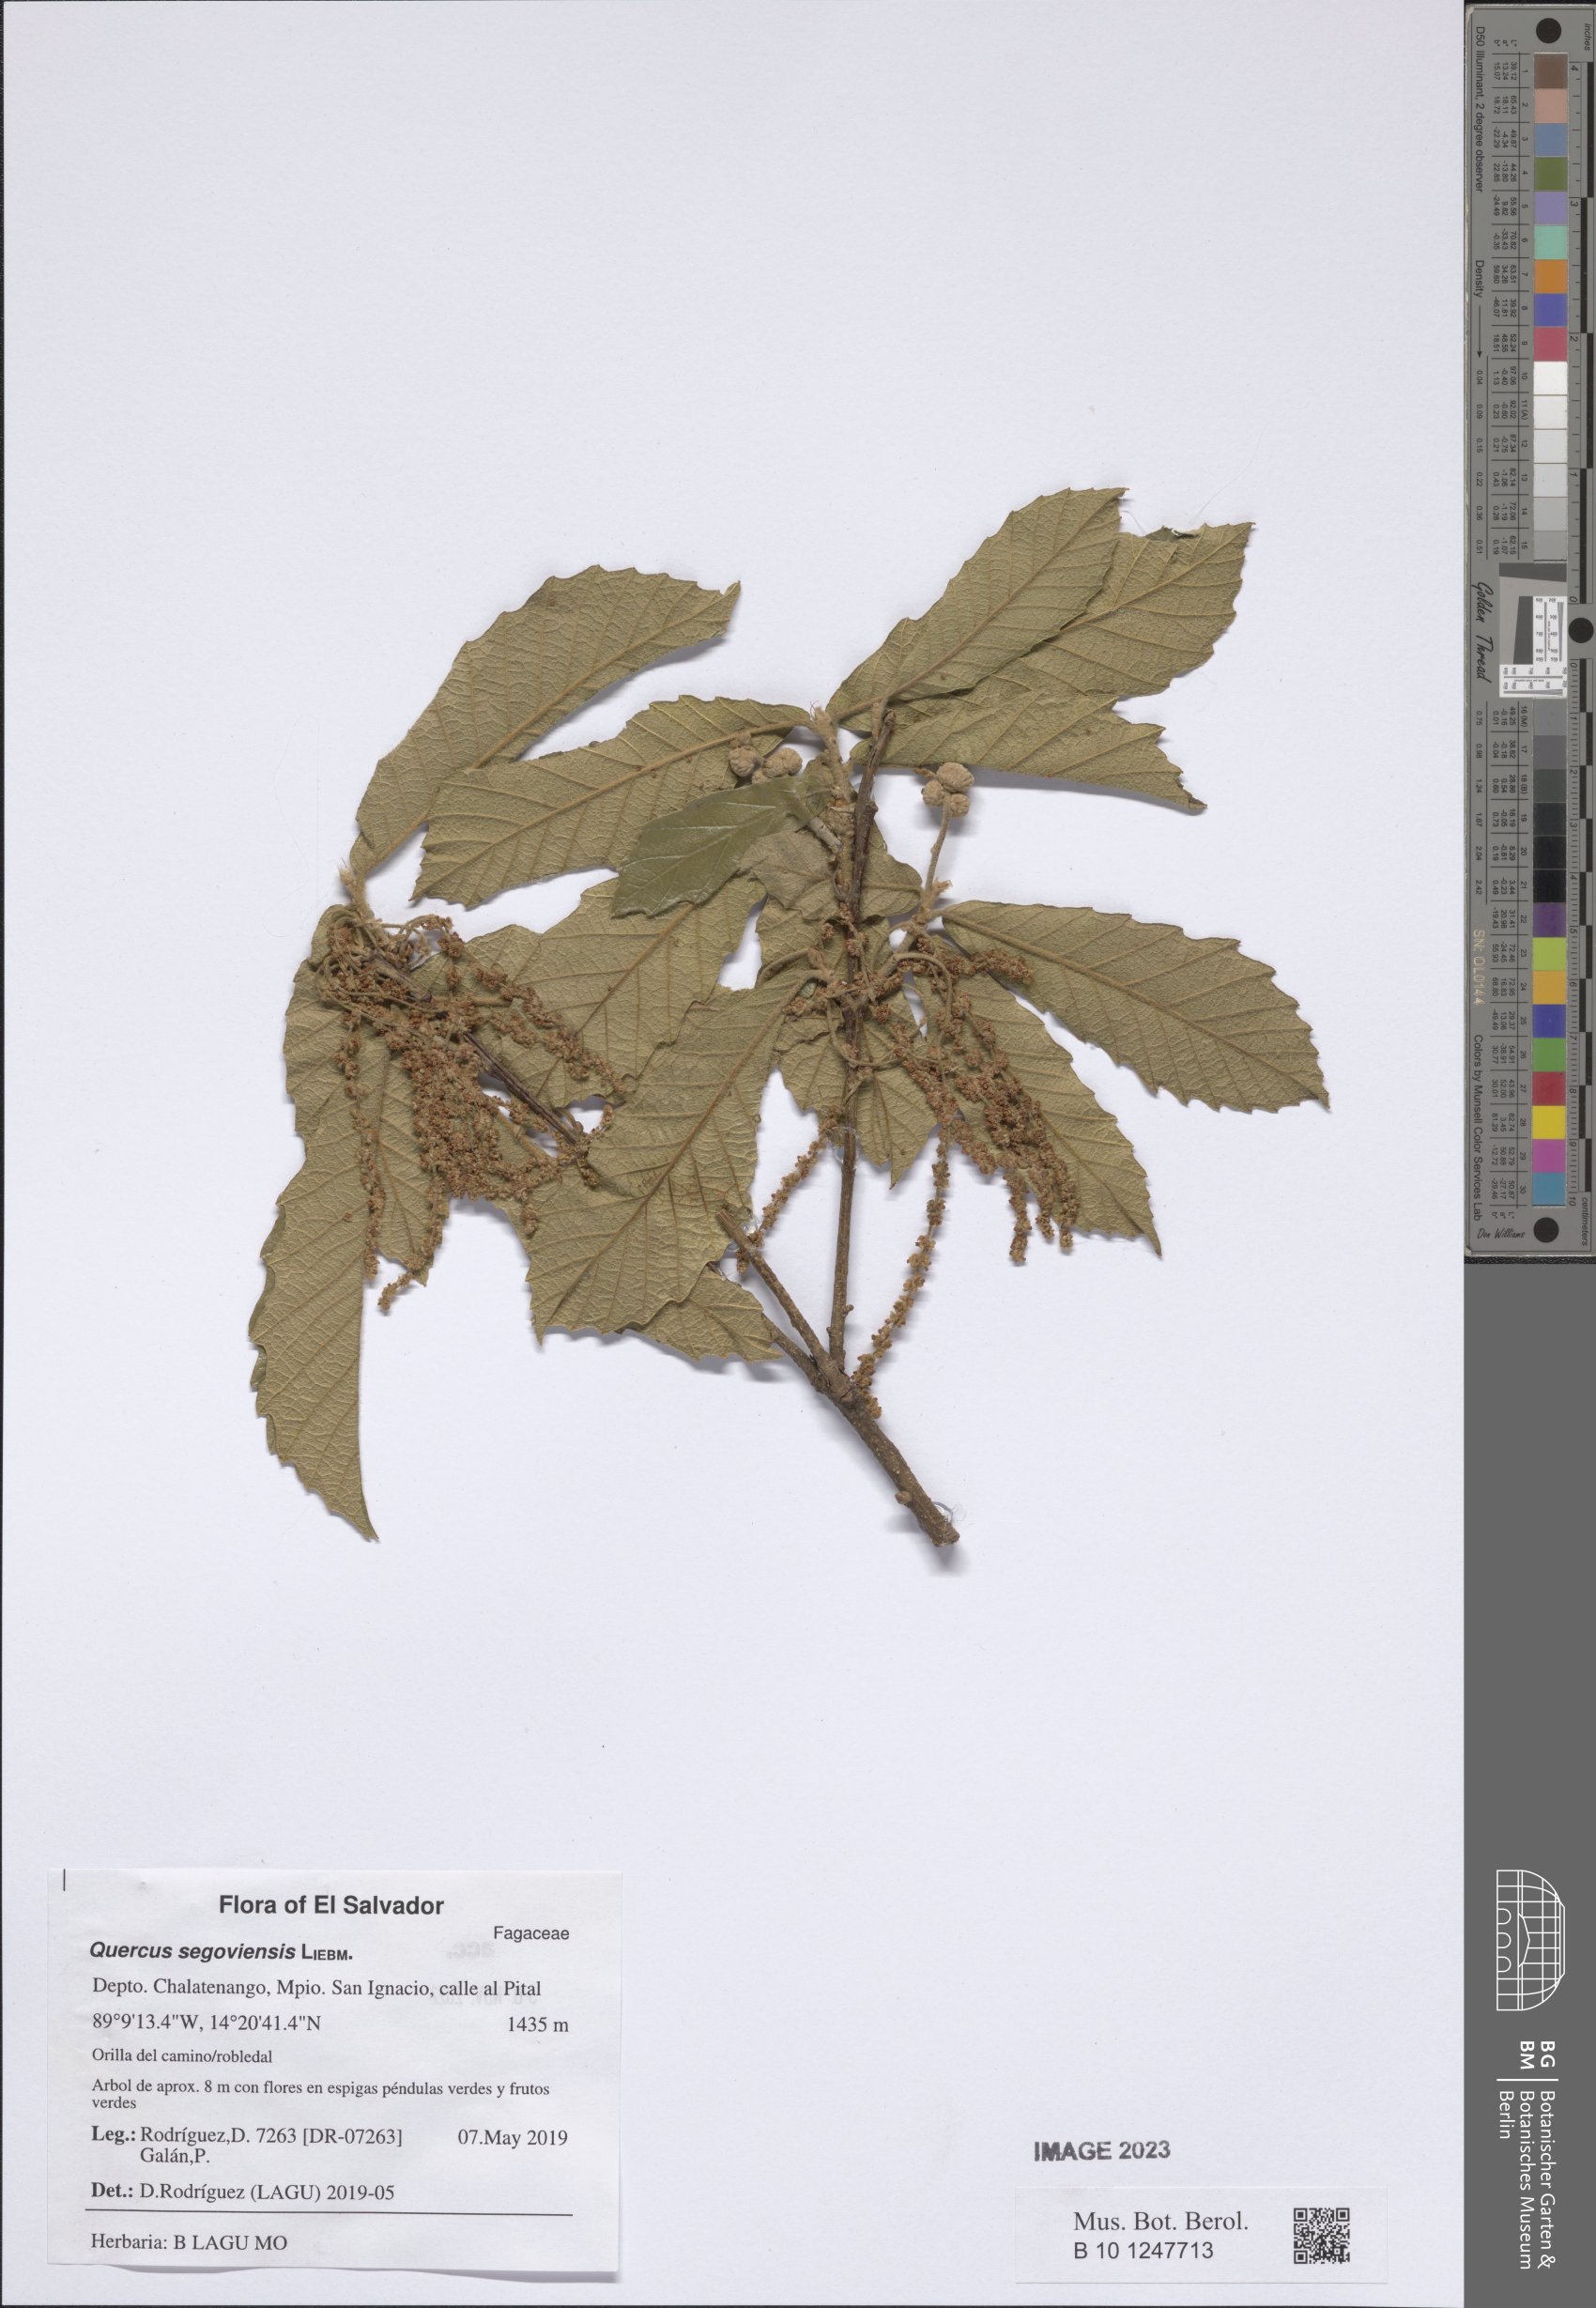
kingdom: Plantae
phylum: Tracheophyta
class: Magnoliopsida
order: Fagales
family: Fagaceae
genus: Quercus
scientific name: Quercus segoviensis
